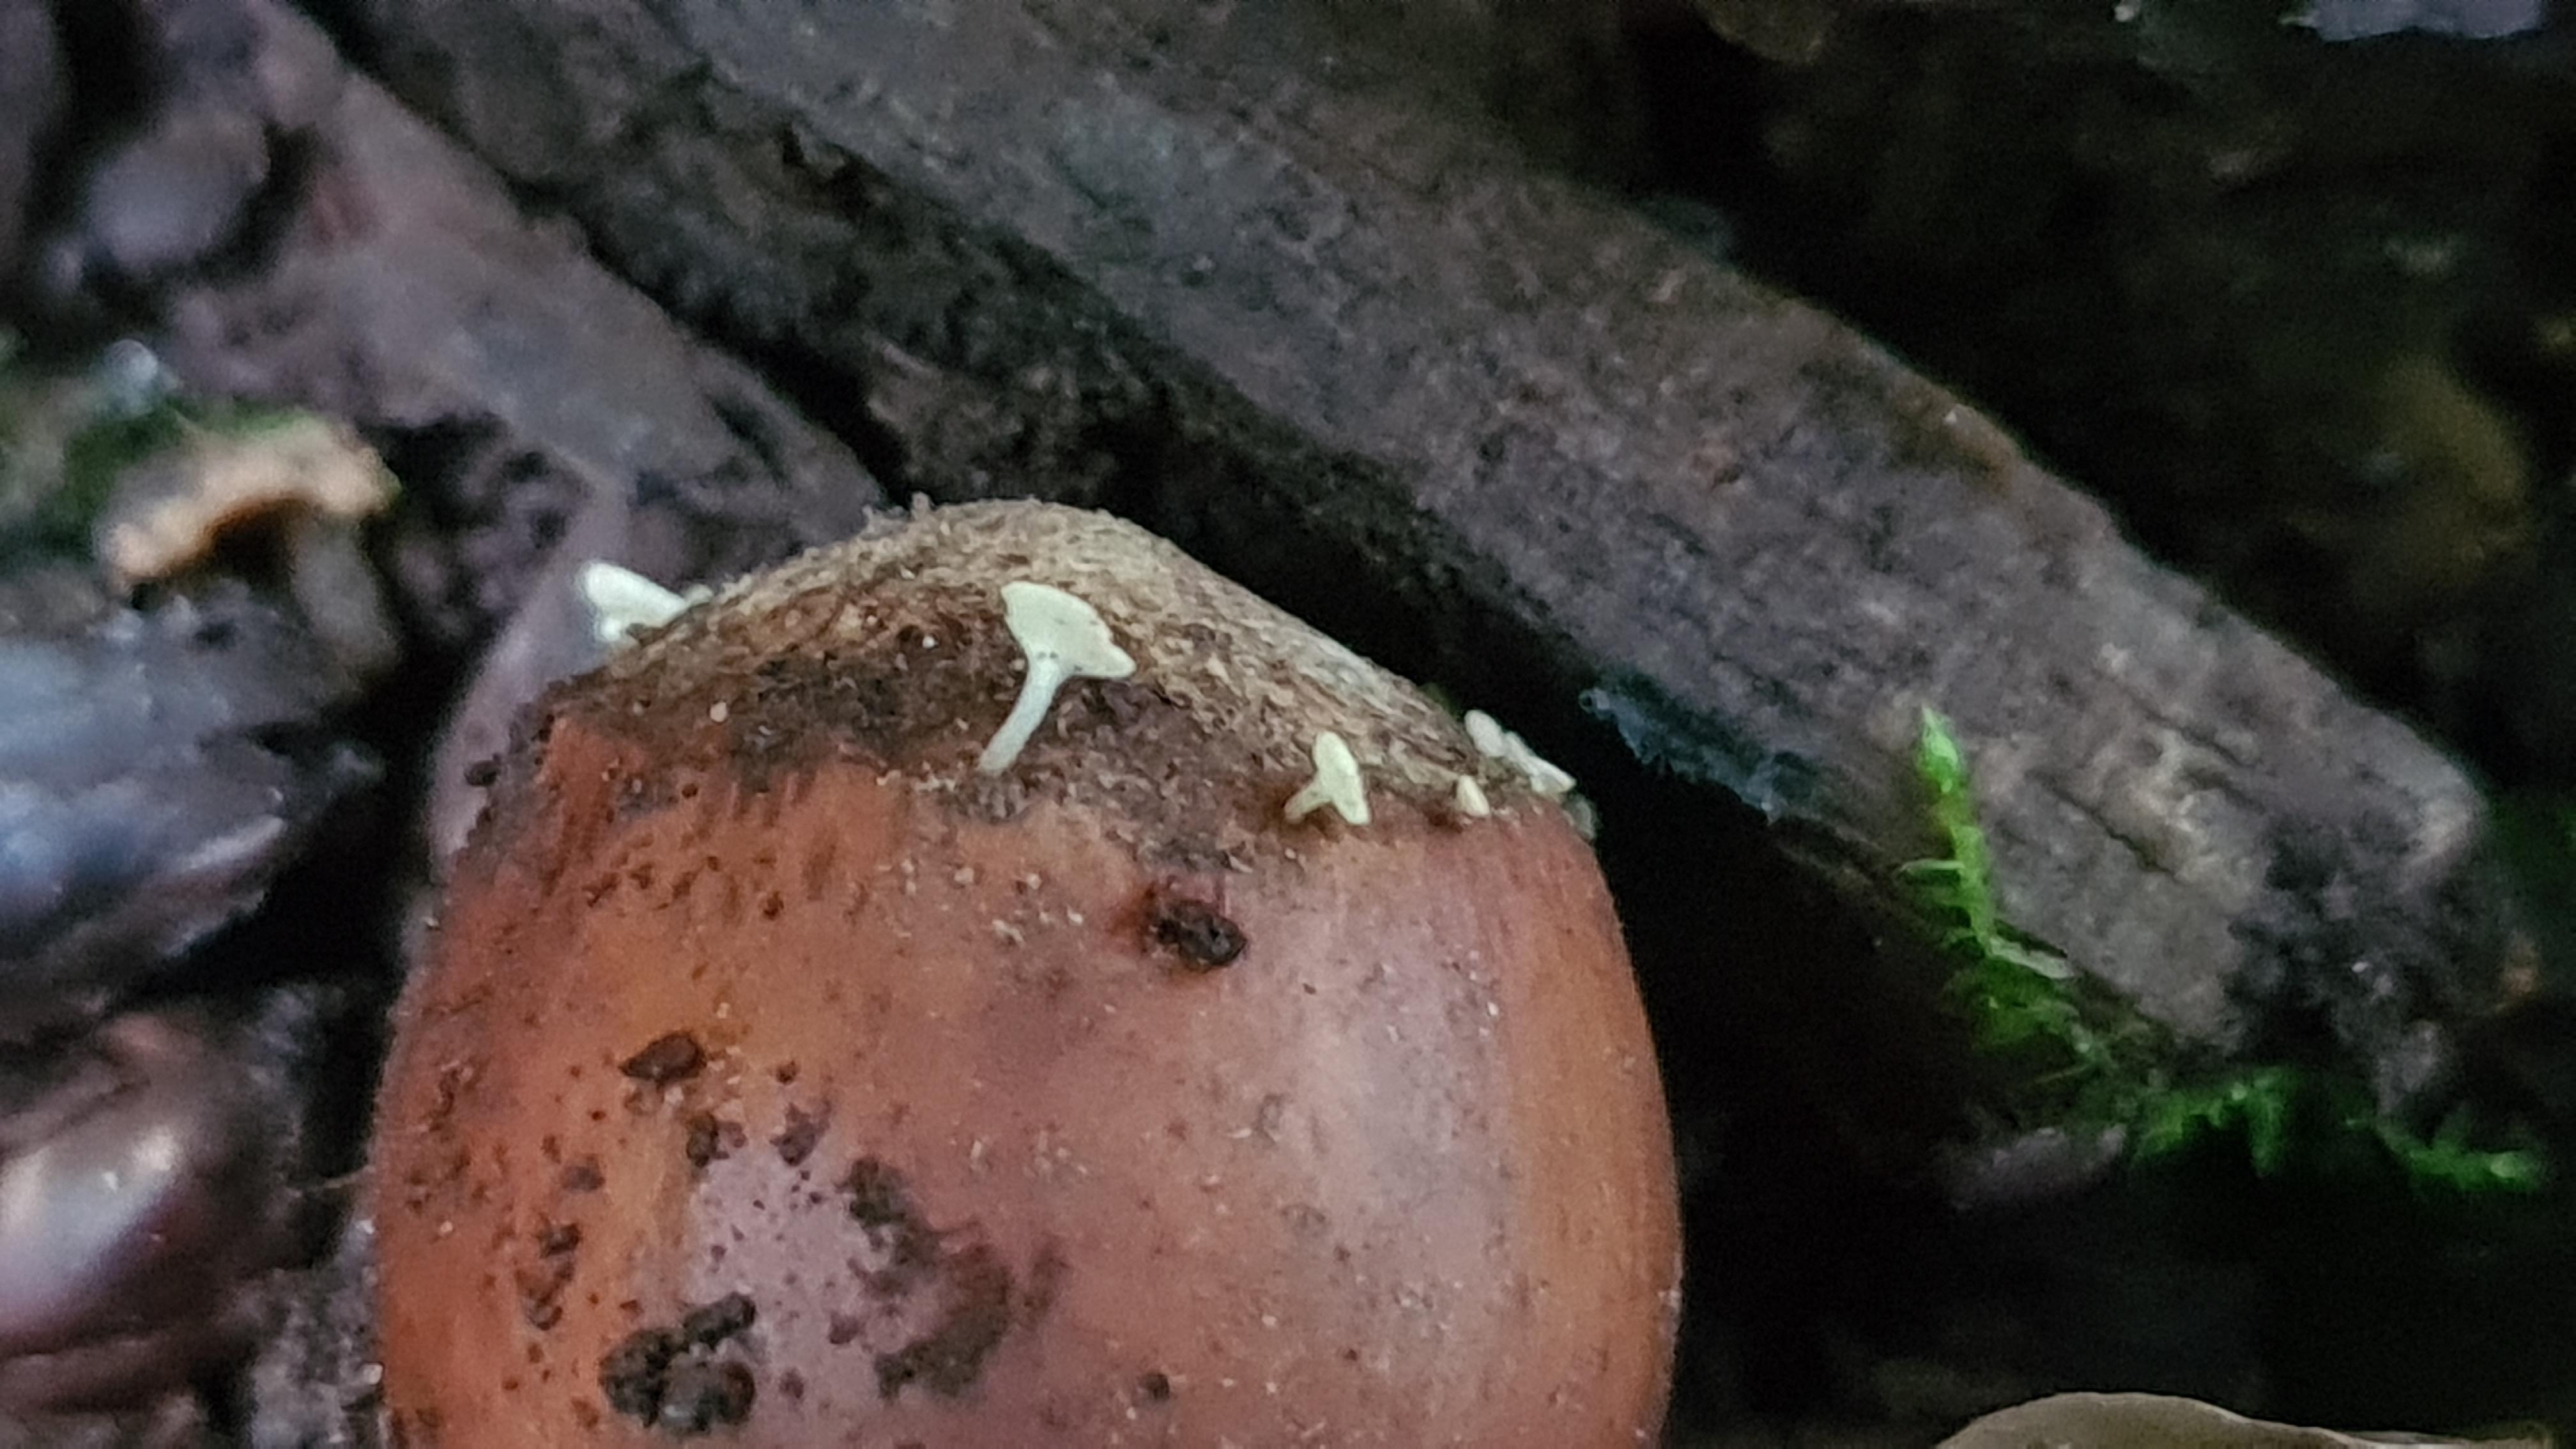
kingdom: Fungi
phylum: Ascomycota
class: Leotiomycetes
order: Helotiales
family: Helotiaceae
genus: Hymenoscyphus
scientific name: Hymenoscyphus rokebyensis
